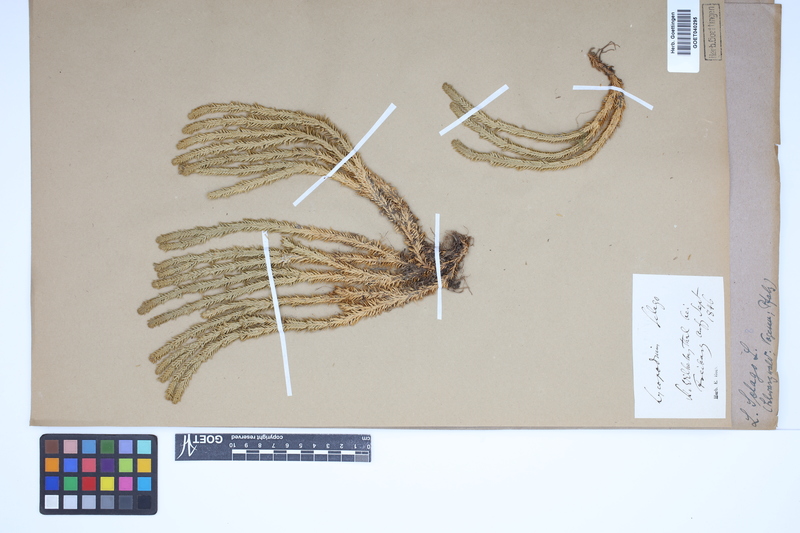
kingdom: Plantae
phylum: Tracheophyta
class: Lycopodiopsida
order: Lycopodiales
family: Lycopodiaceae
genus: Huperzia
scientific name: Huperzia selago
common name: Northern firmoss
